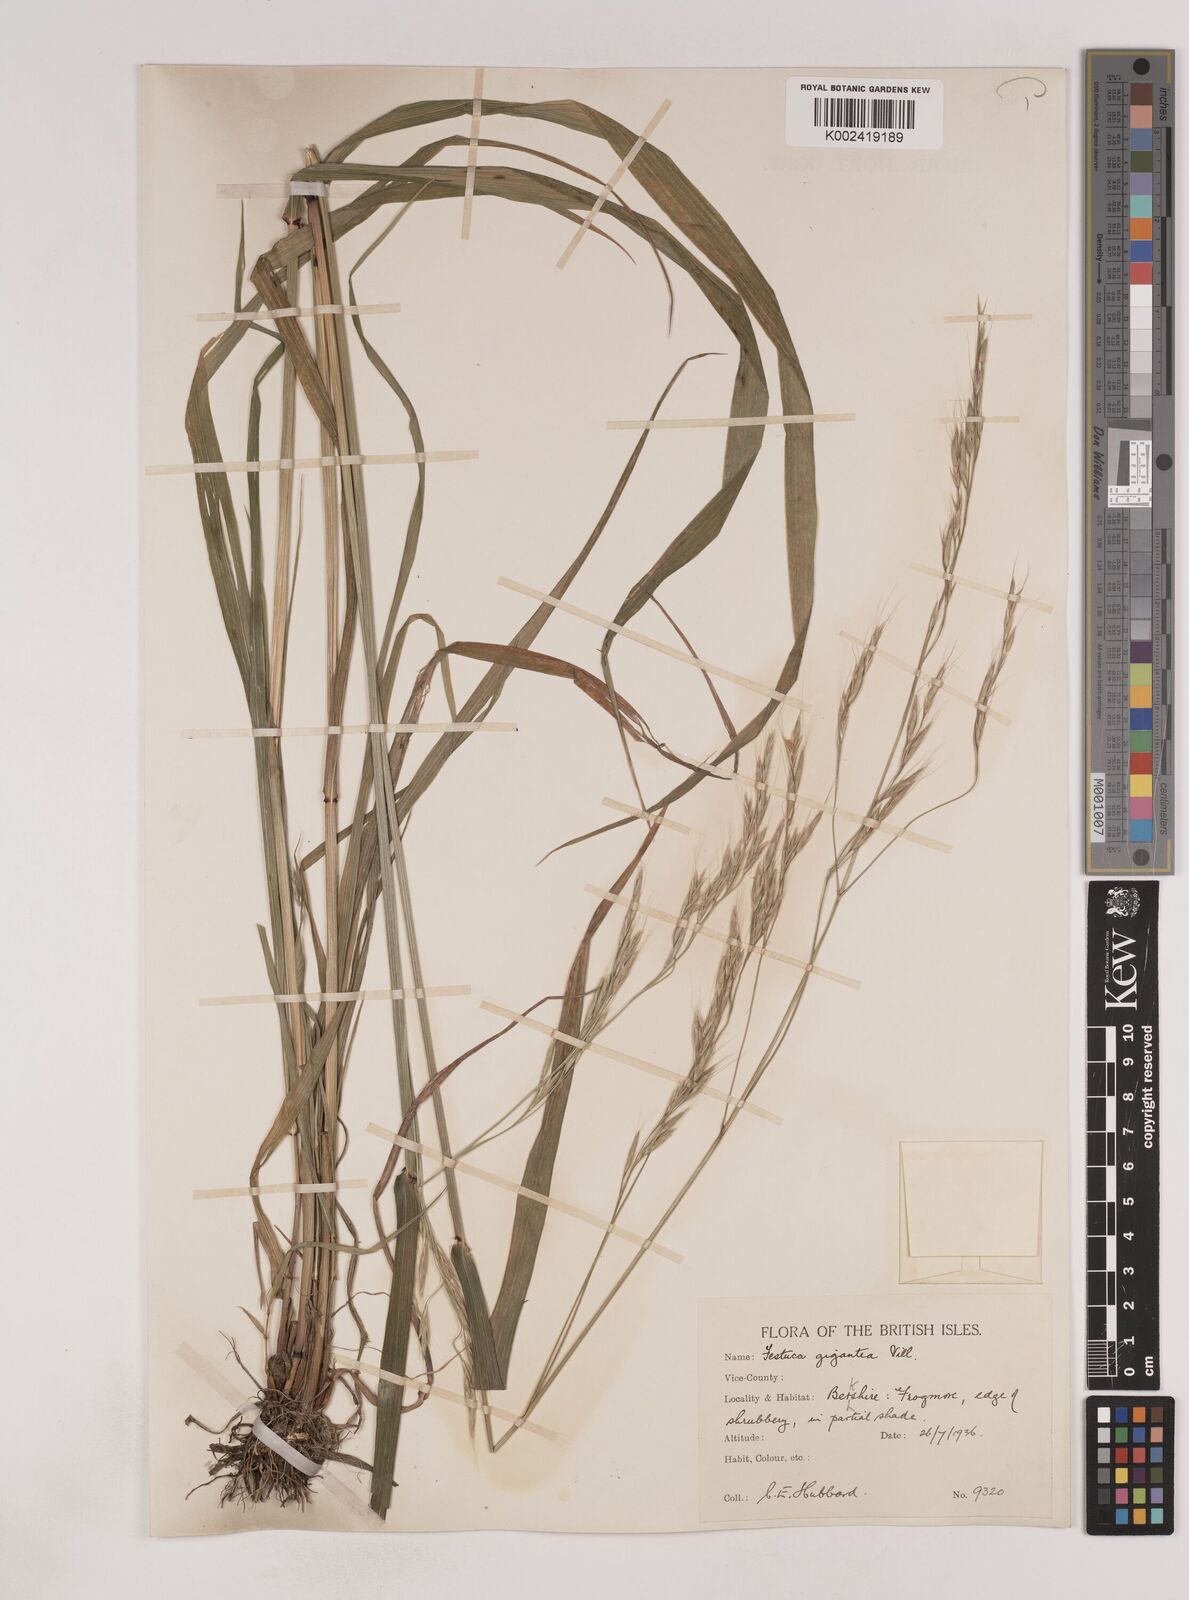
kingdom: Plantae
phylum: Tracheophyta
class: Liliopsida
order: Poales
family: Poaceae
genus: Lolium
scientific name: Lolium giganteum
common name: Giant fescue
